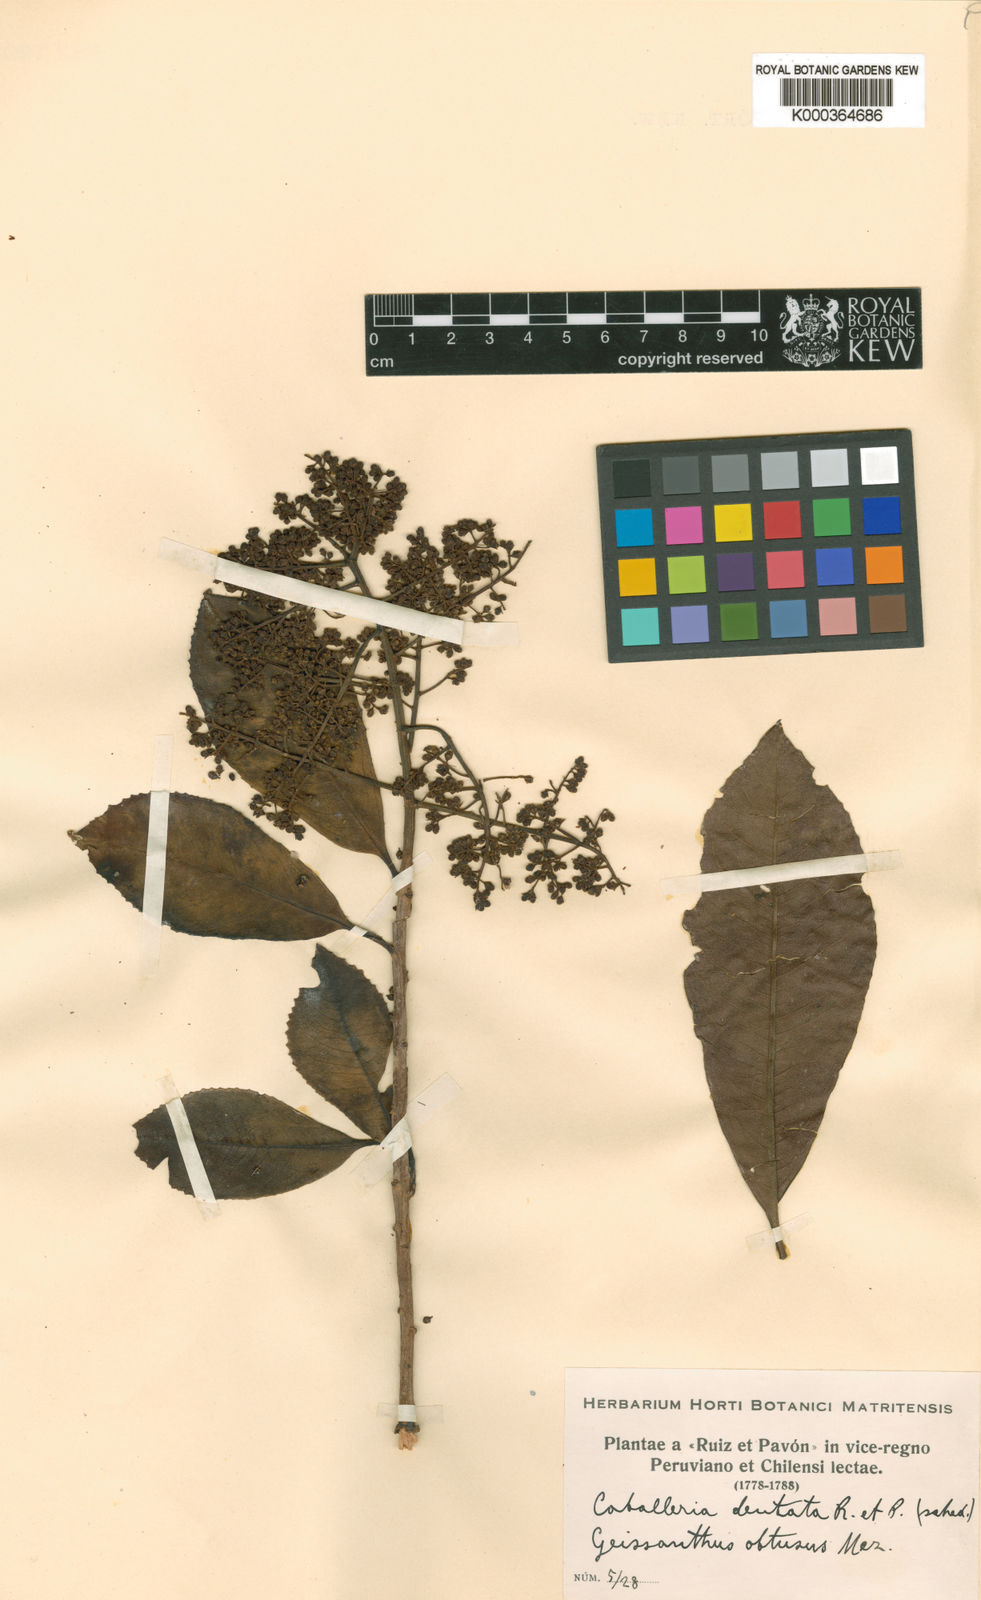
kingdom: Plantae
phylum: Tracheophyta
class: Magnoliopsida
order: Ericales
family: Primulaceae
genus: Geissanthus
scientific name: Geissanthus dentatus
